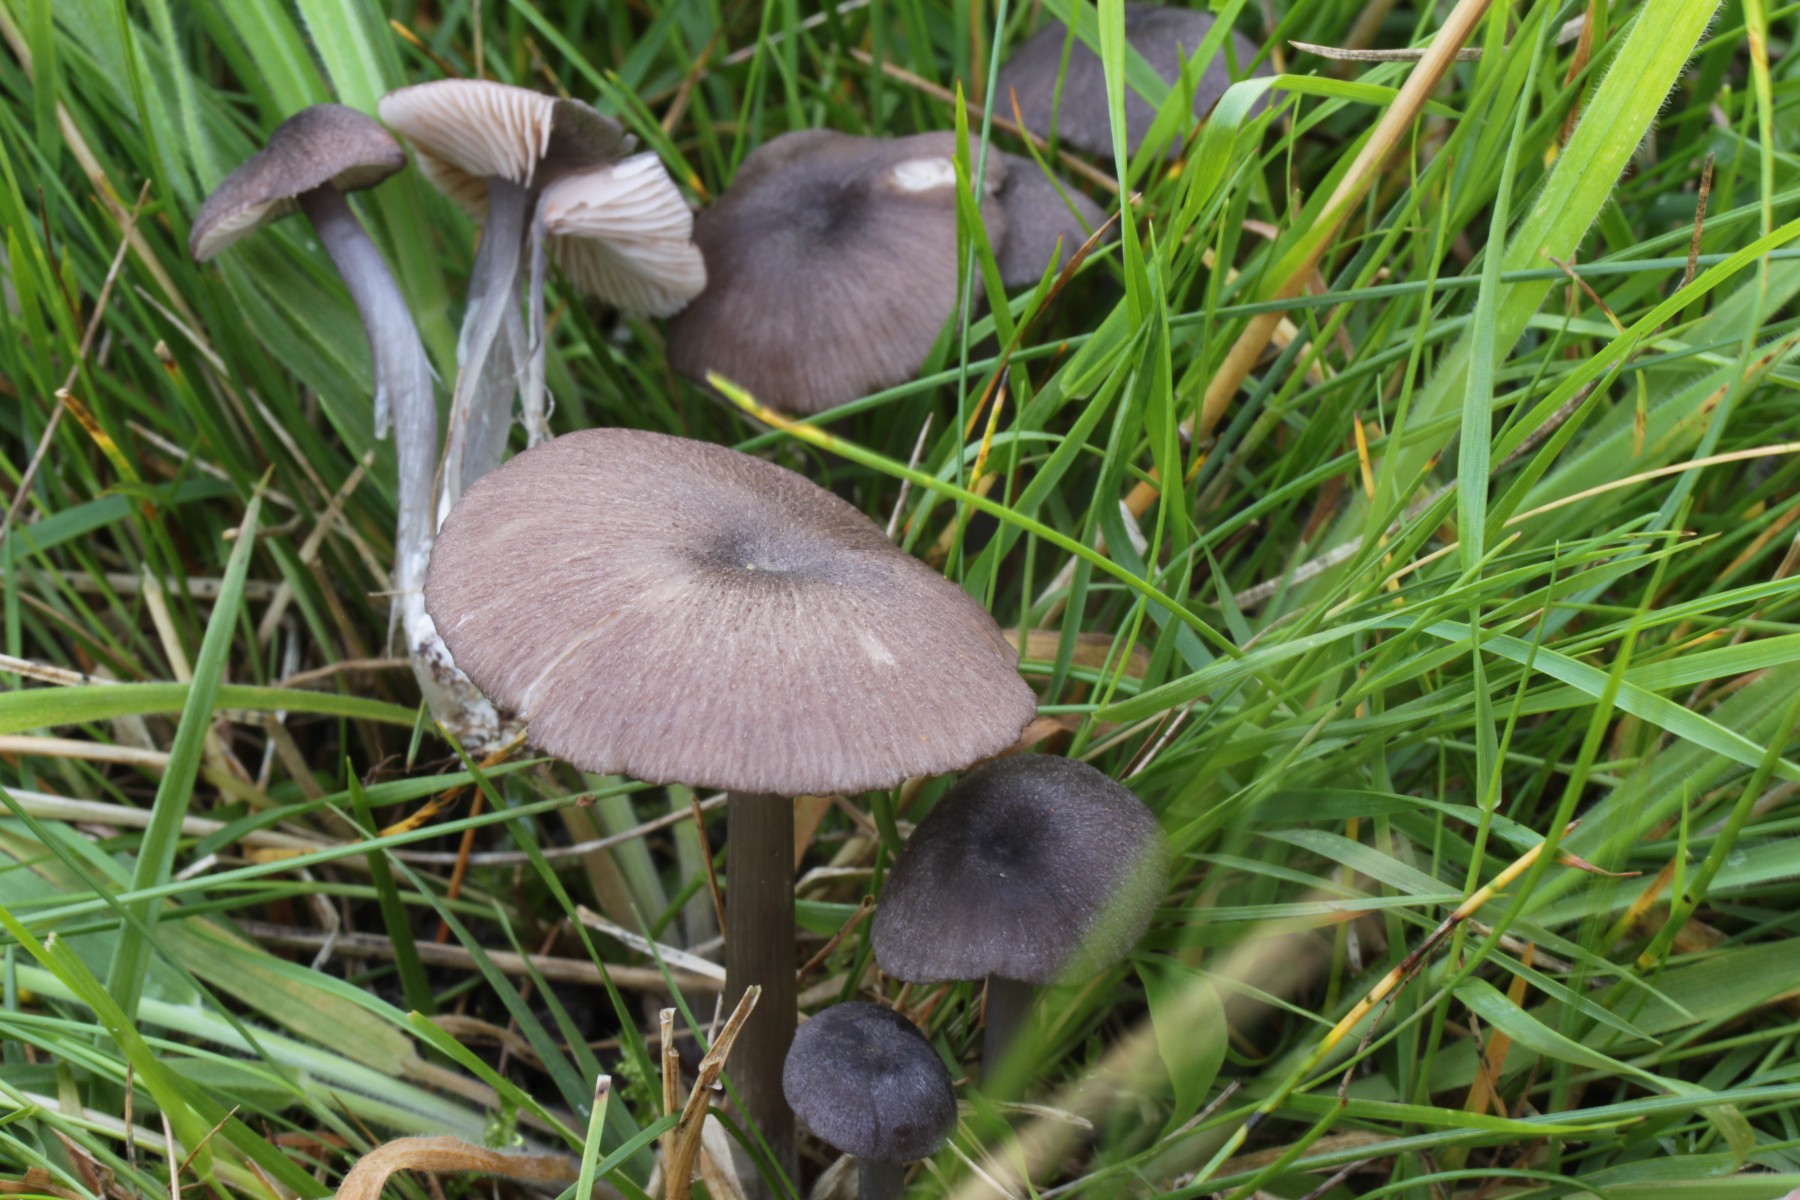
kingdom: Fungi
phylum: Basidiomycota
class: Agaricomycetes
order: Agaricales
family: Entolomataceae
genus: Entoloma
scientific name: Entoloma
